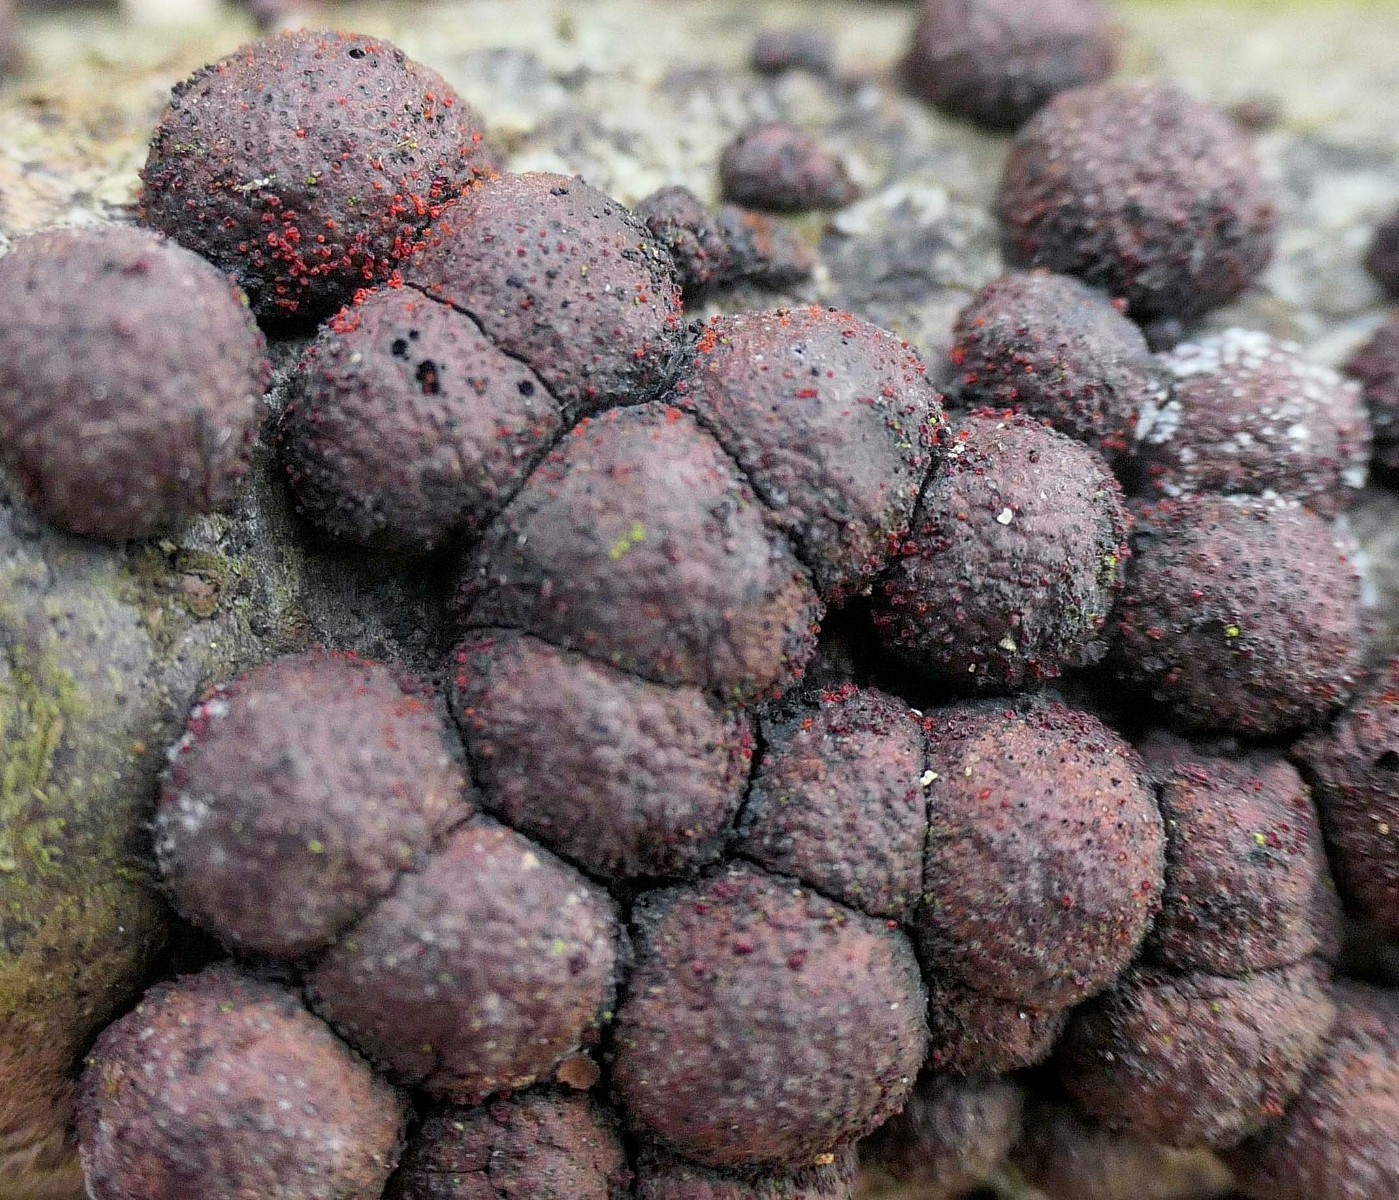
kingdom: Fungi
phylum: Ascomycota
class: Sordariomycetes
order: Hypocreales
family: Nectriaceae
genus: Cosmospora
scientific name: Cosmospora arxii
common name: kuljordbær-cinnobersvamp
